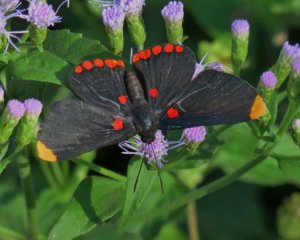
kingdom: Animalia
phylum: Arthropoda
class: Insecta
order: Lepidoptera
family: Lycaenidae
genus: Melanis
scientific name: Melanis pixe
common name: Red-bordered Pixie
